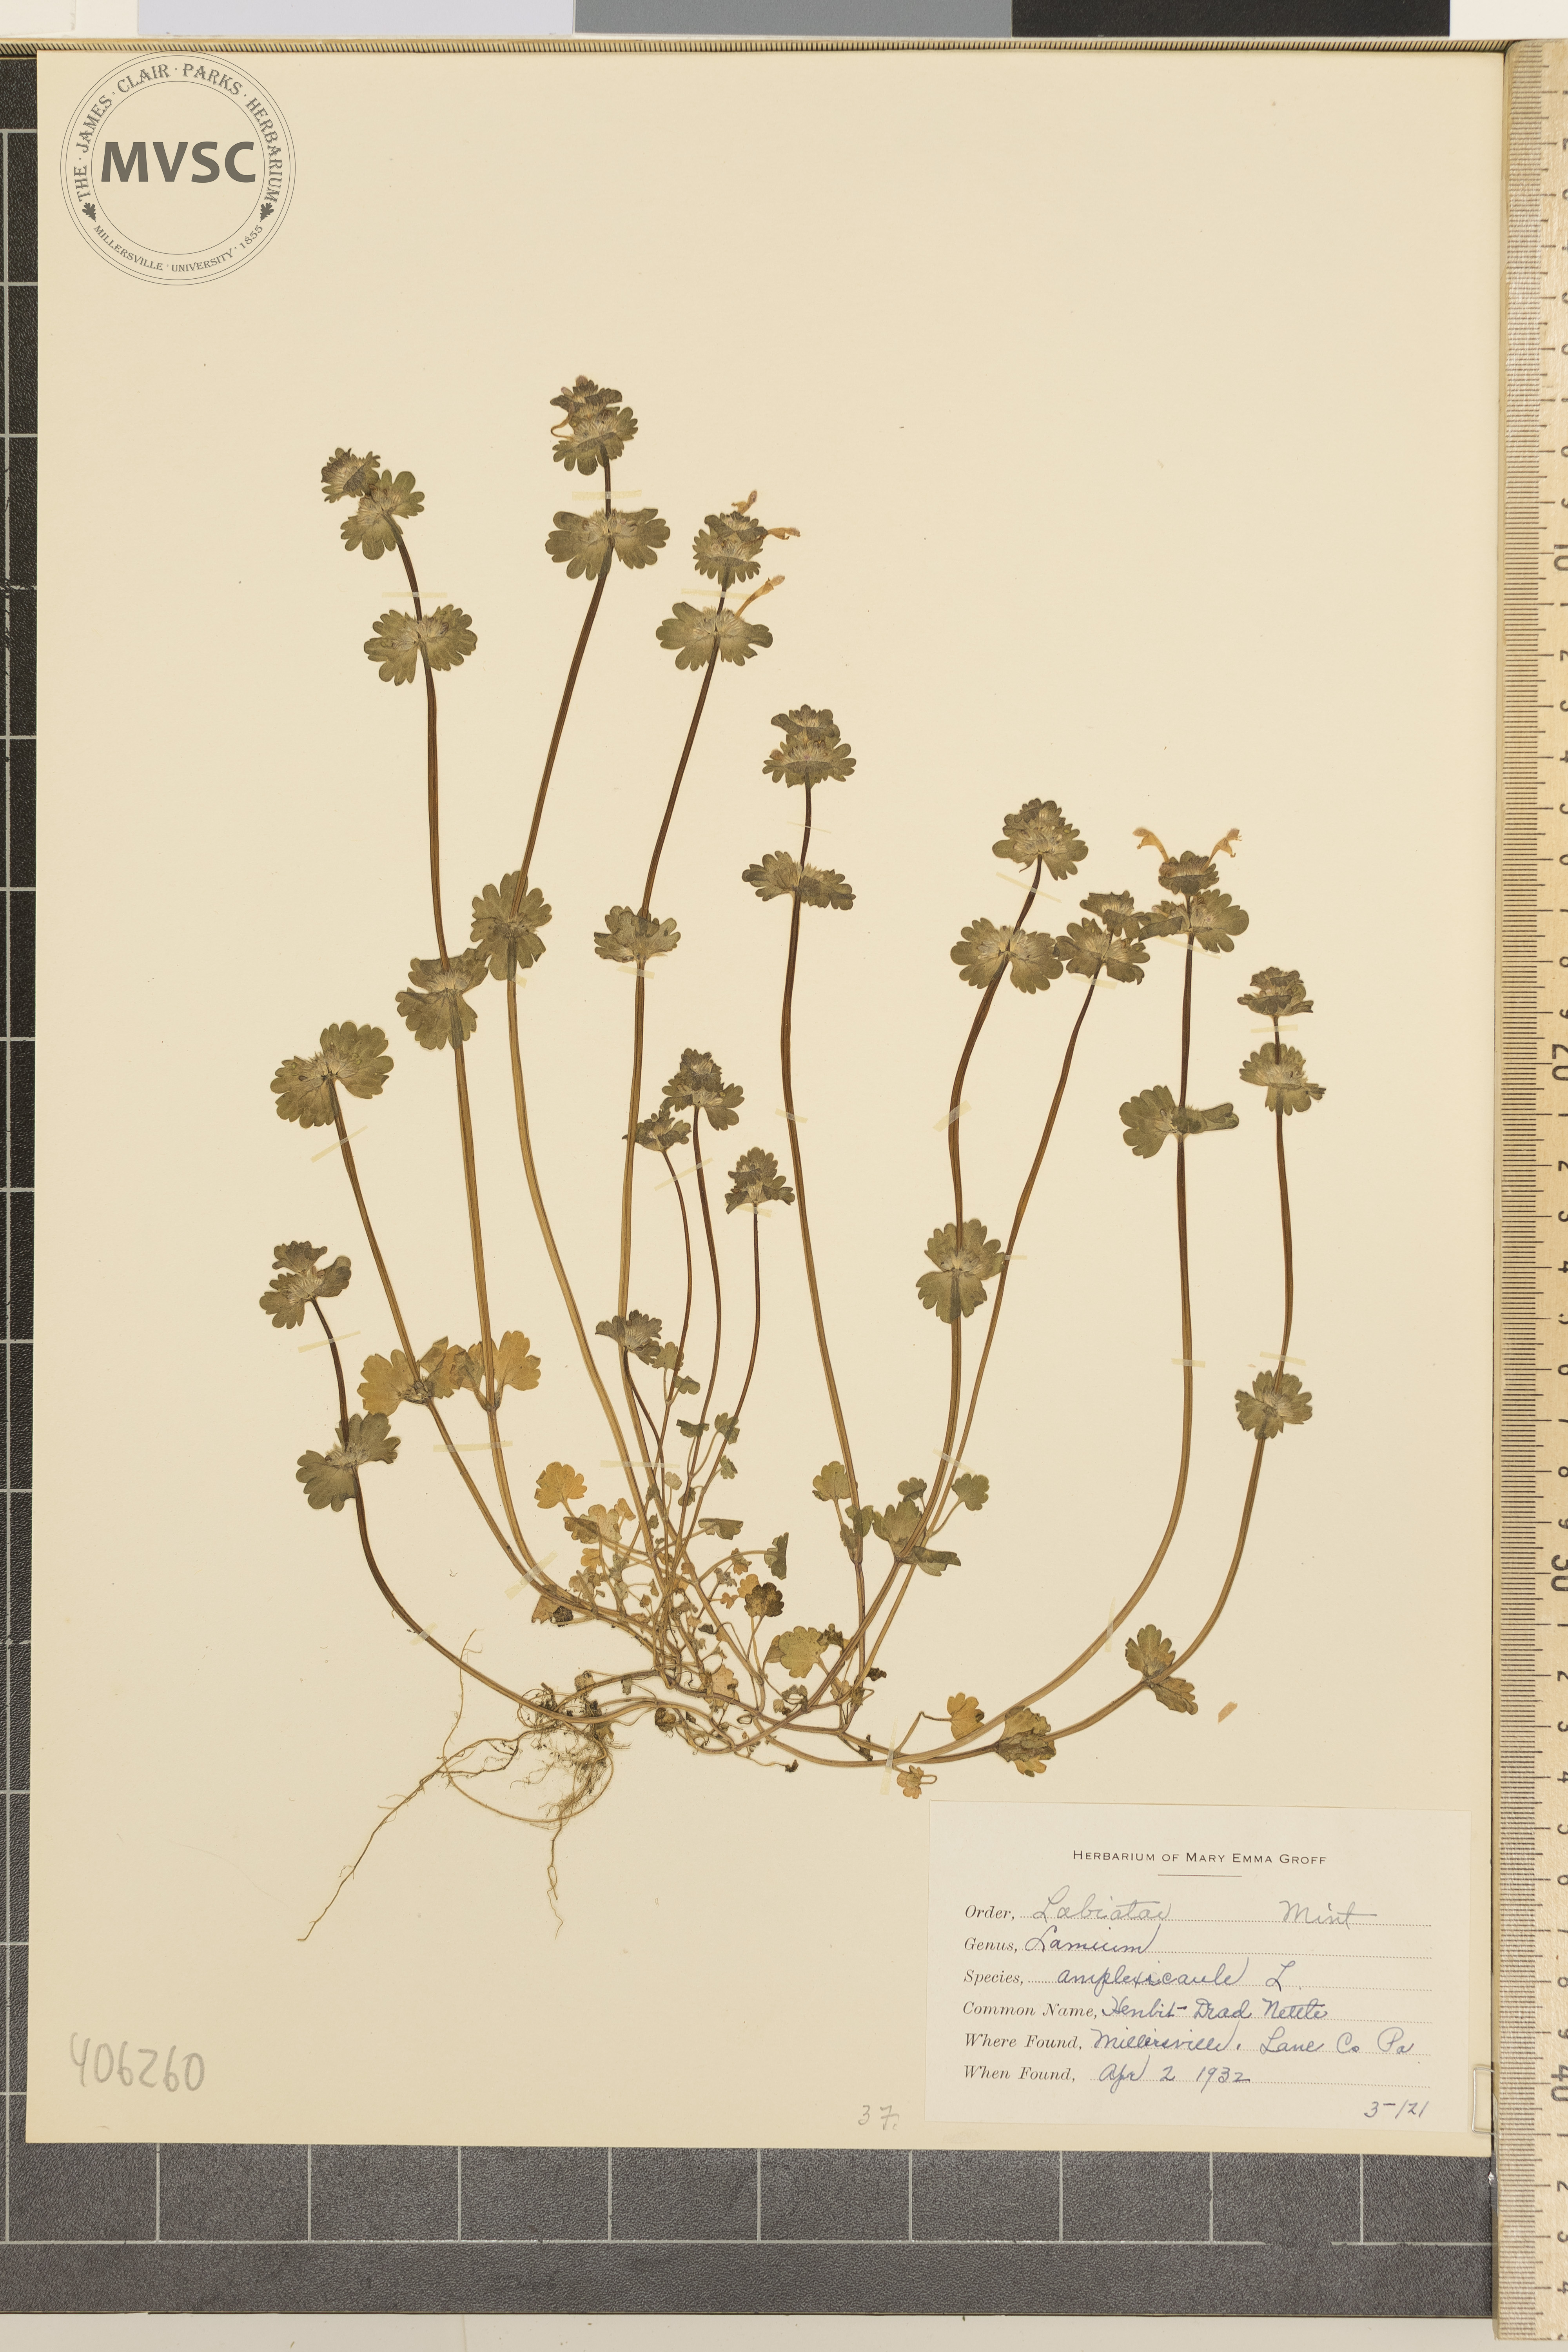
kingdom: Plantae
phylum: Tracheophyta
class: Magnoliopsida
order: Lamiales
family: Lamiaceae
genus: Lamium
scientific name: Lamium amplexicaule
